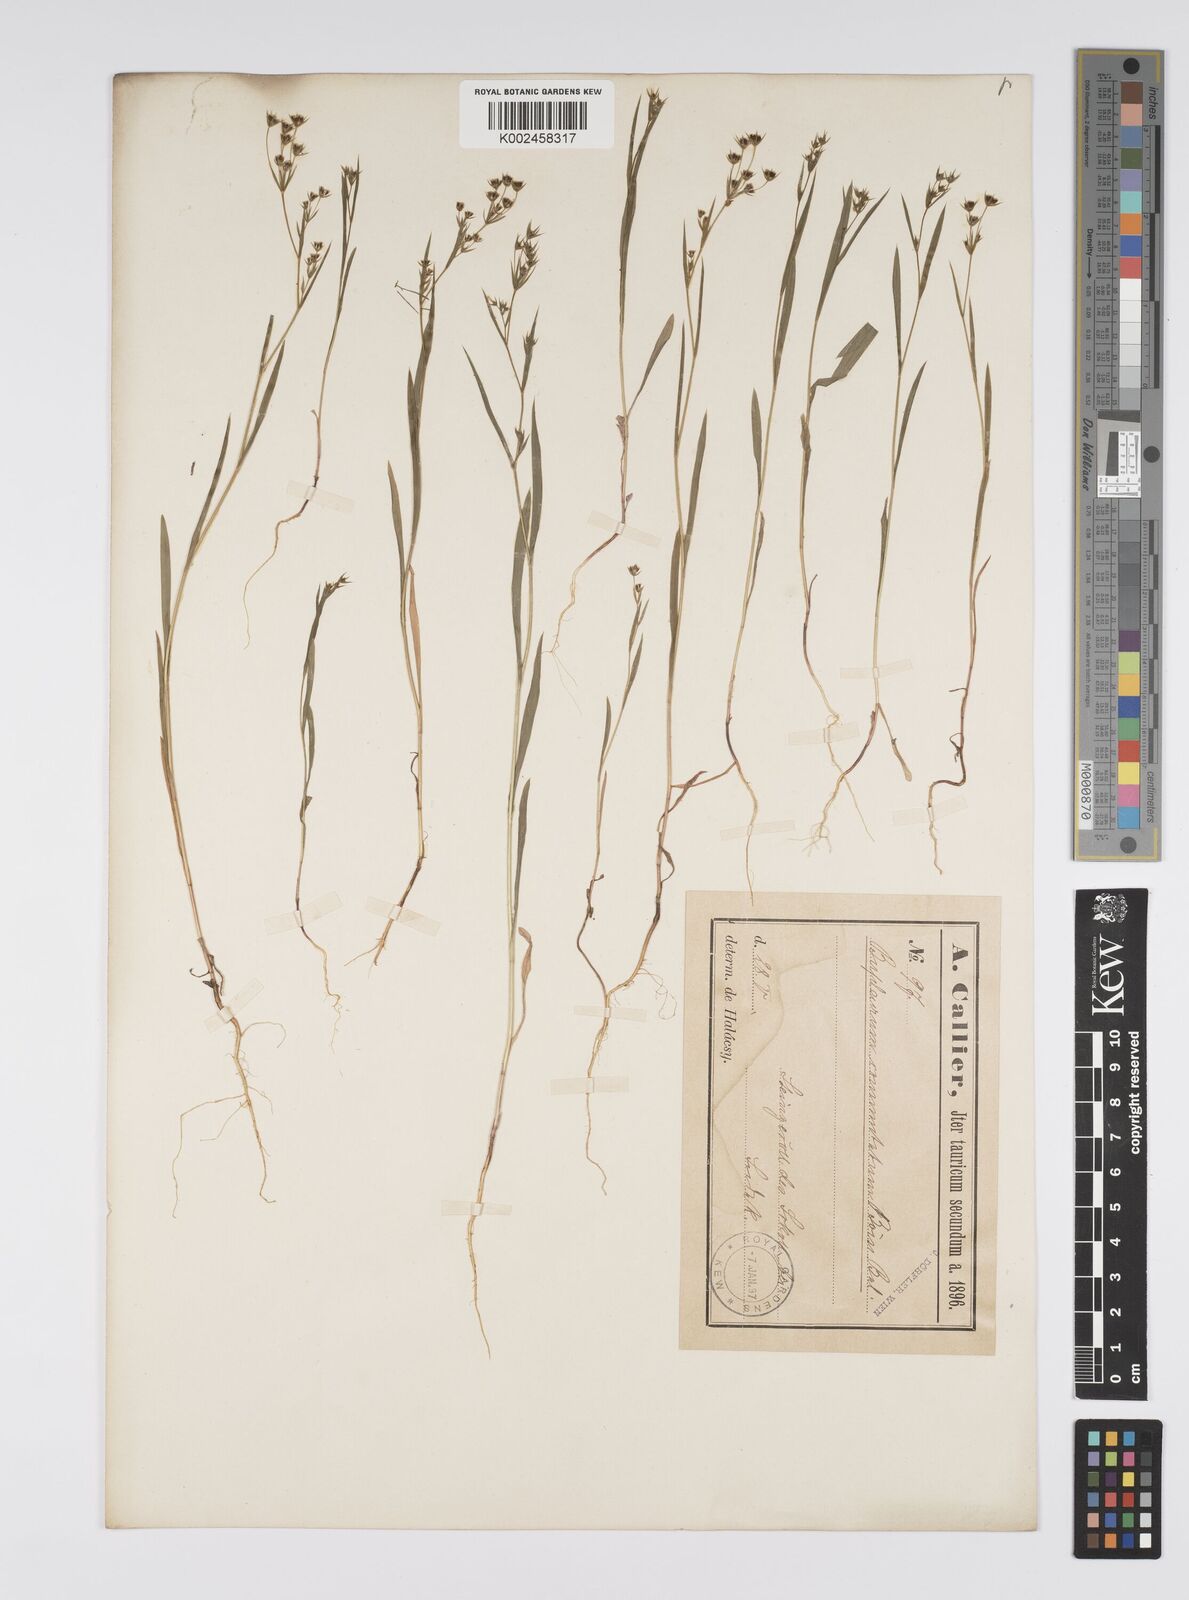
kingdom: Plantae
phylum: Tracheophyta
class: Magnoliopsida
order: Apiales
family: Apiaceae
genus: Bupleurum
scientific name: Bupleurum
